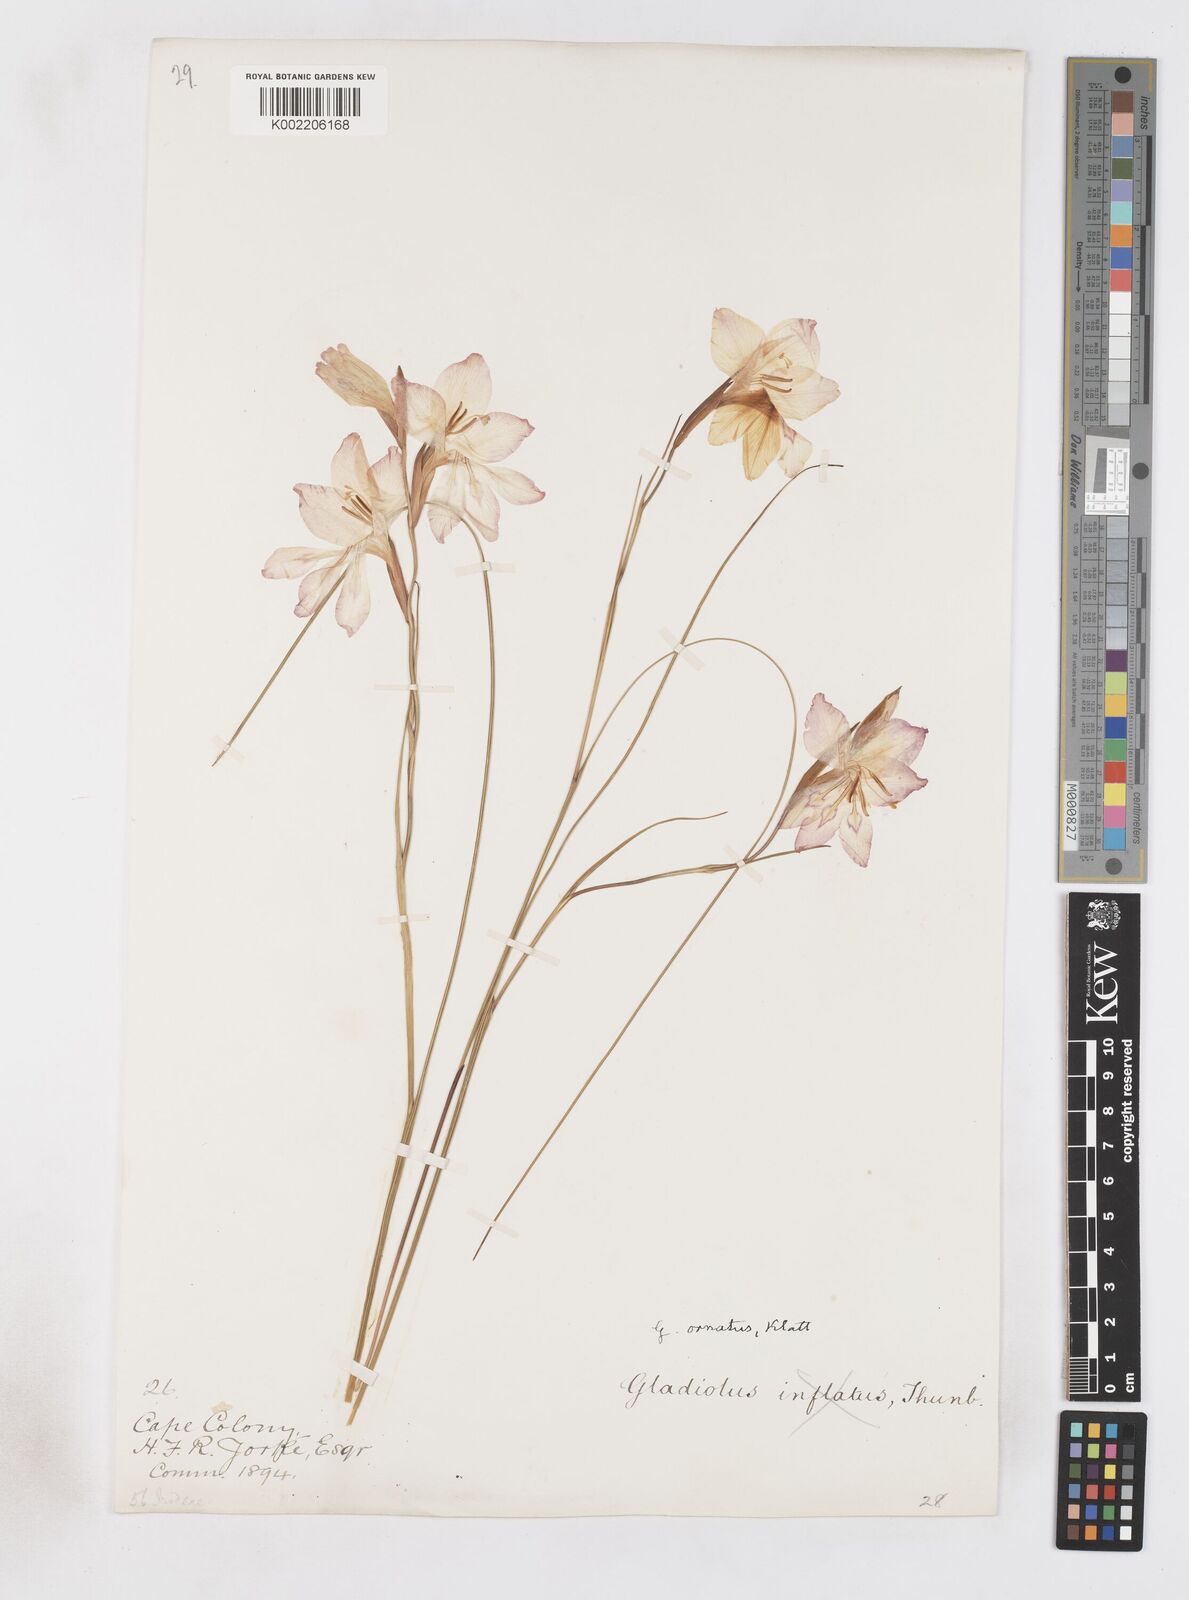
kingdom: Plantae
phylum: Tracheophyta
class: Liliopsida
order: Asparagales
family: Iridaceae
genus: Gladiolus
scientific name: Gladiolus ornatus
